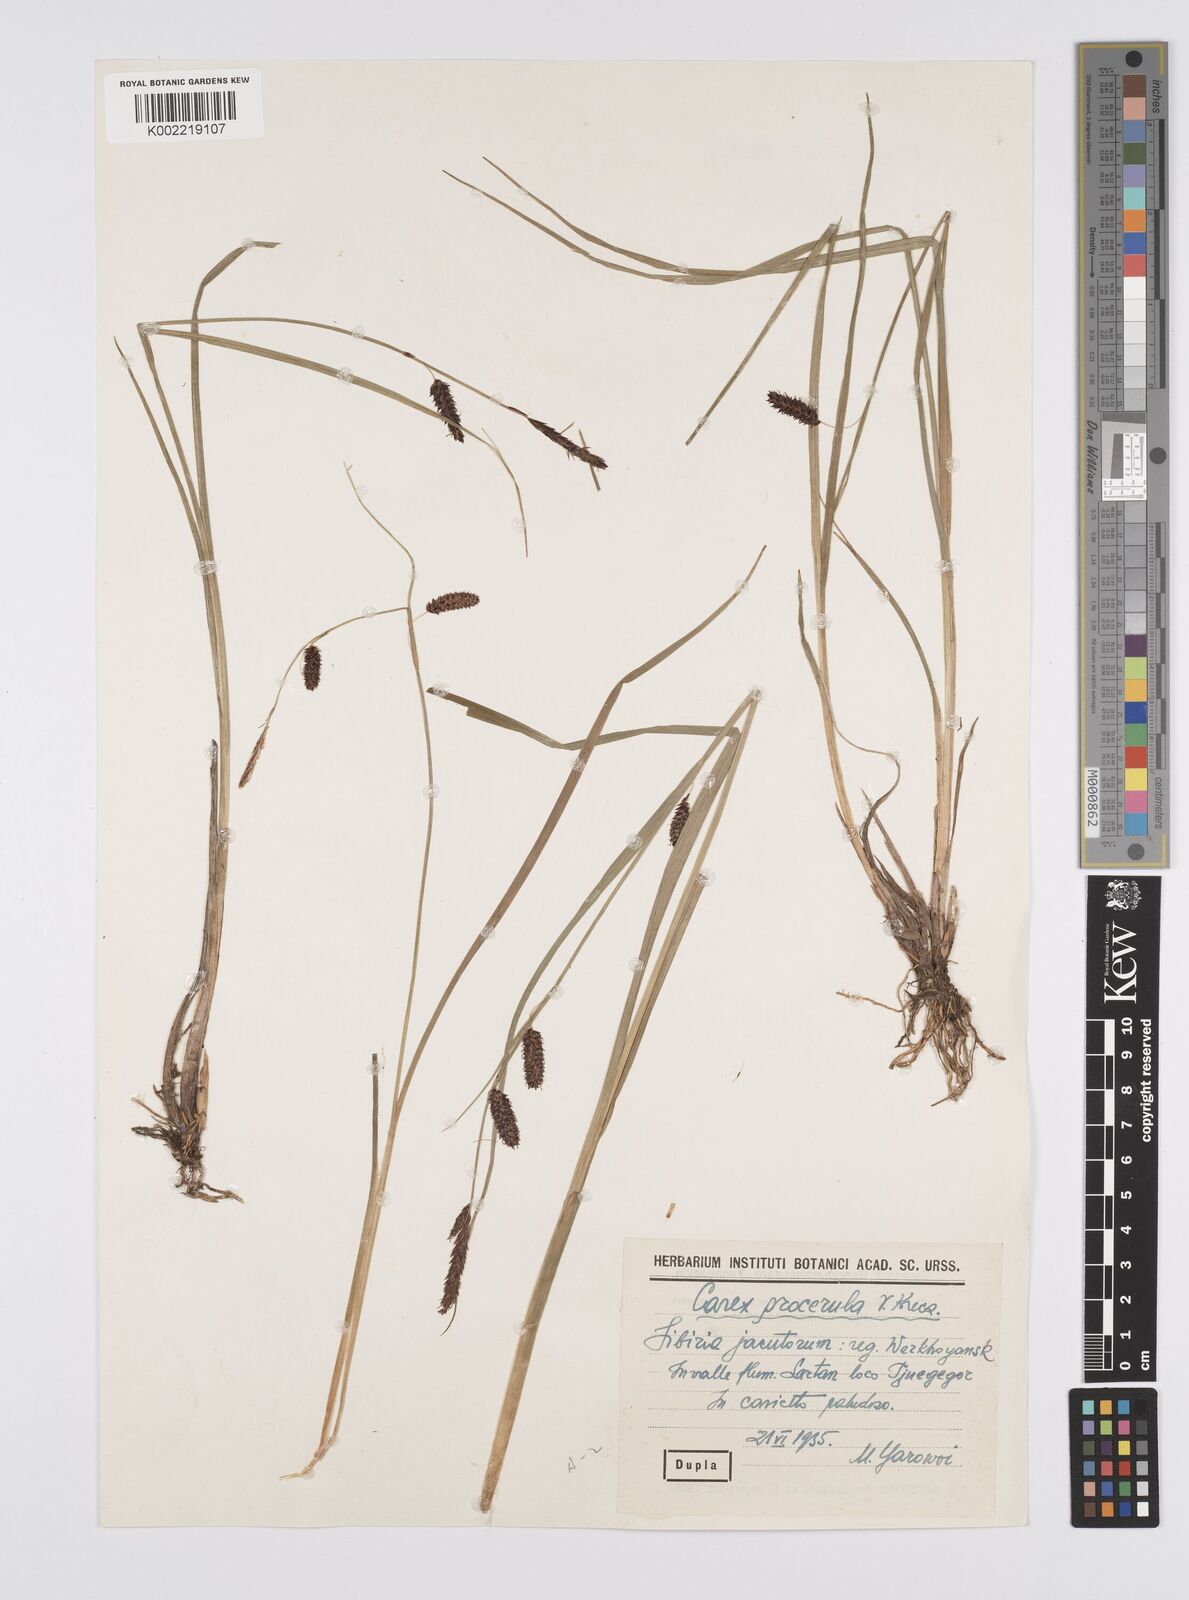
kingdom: Plantae
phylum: Tracheophyta
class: Liliopsida
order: Poales
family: Cyperaceae
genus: Carex
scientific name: Carex saxatilis
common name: Russet sedge
